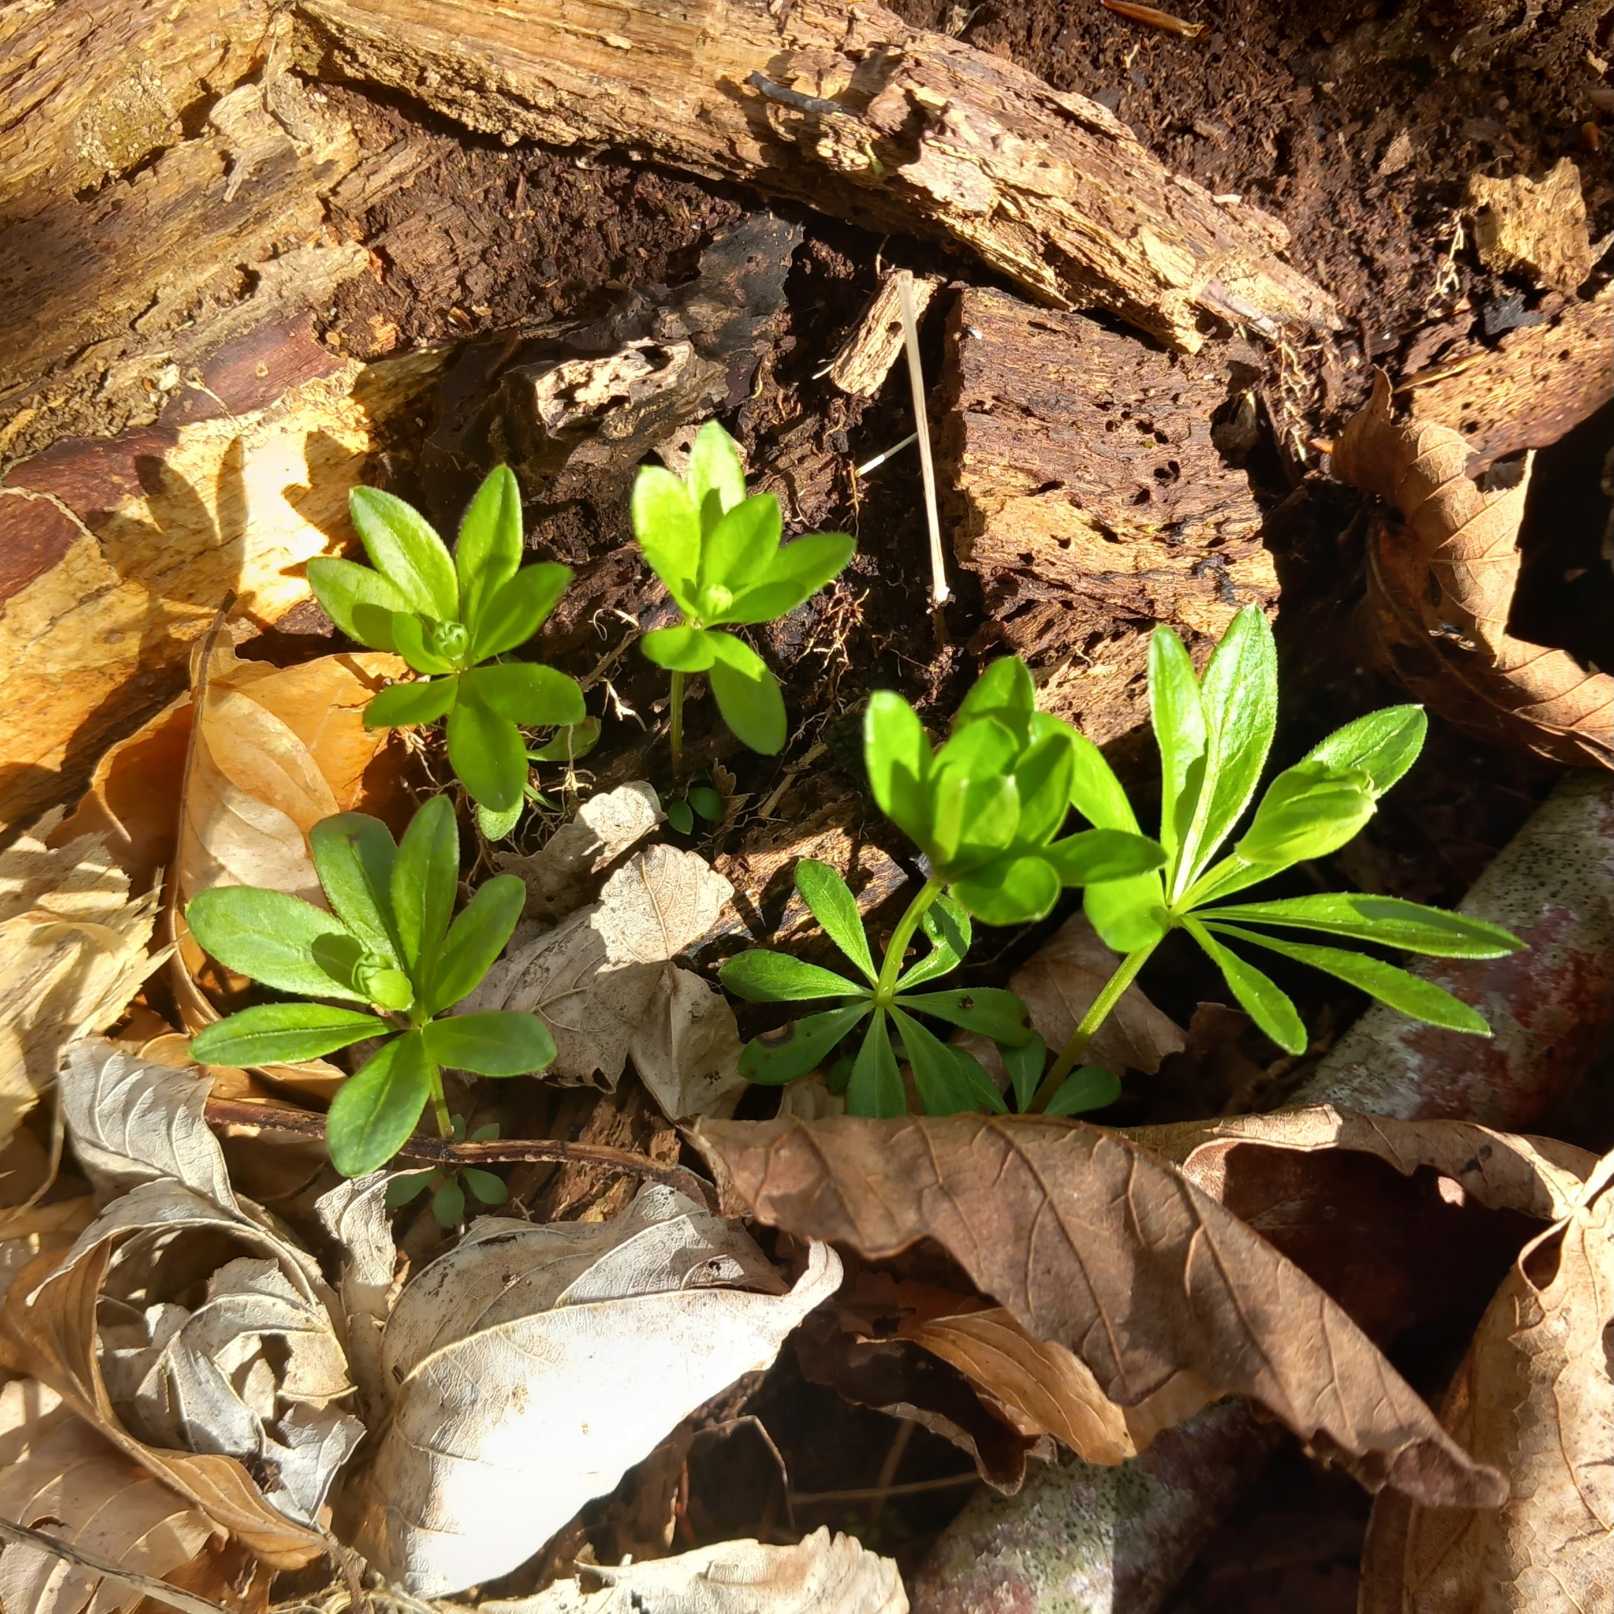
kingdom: Plantae
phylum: Tracheophyta
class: Magnoliopsida
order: Gentianales
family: Rubiaceae
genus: Galium
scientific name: Galium odoratum
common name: Skovmærke
